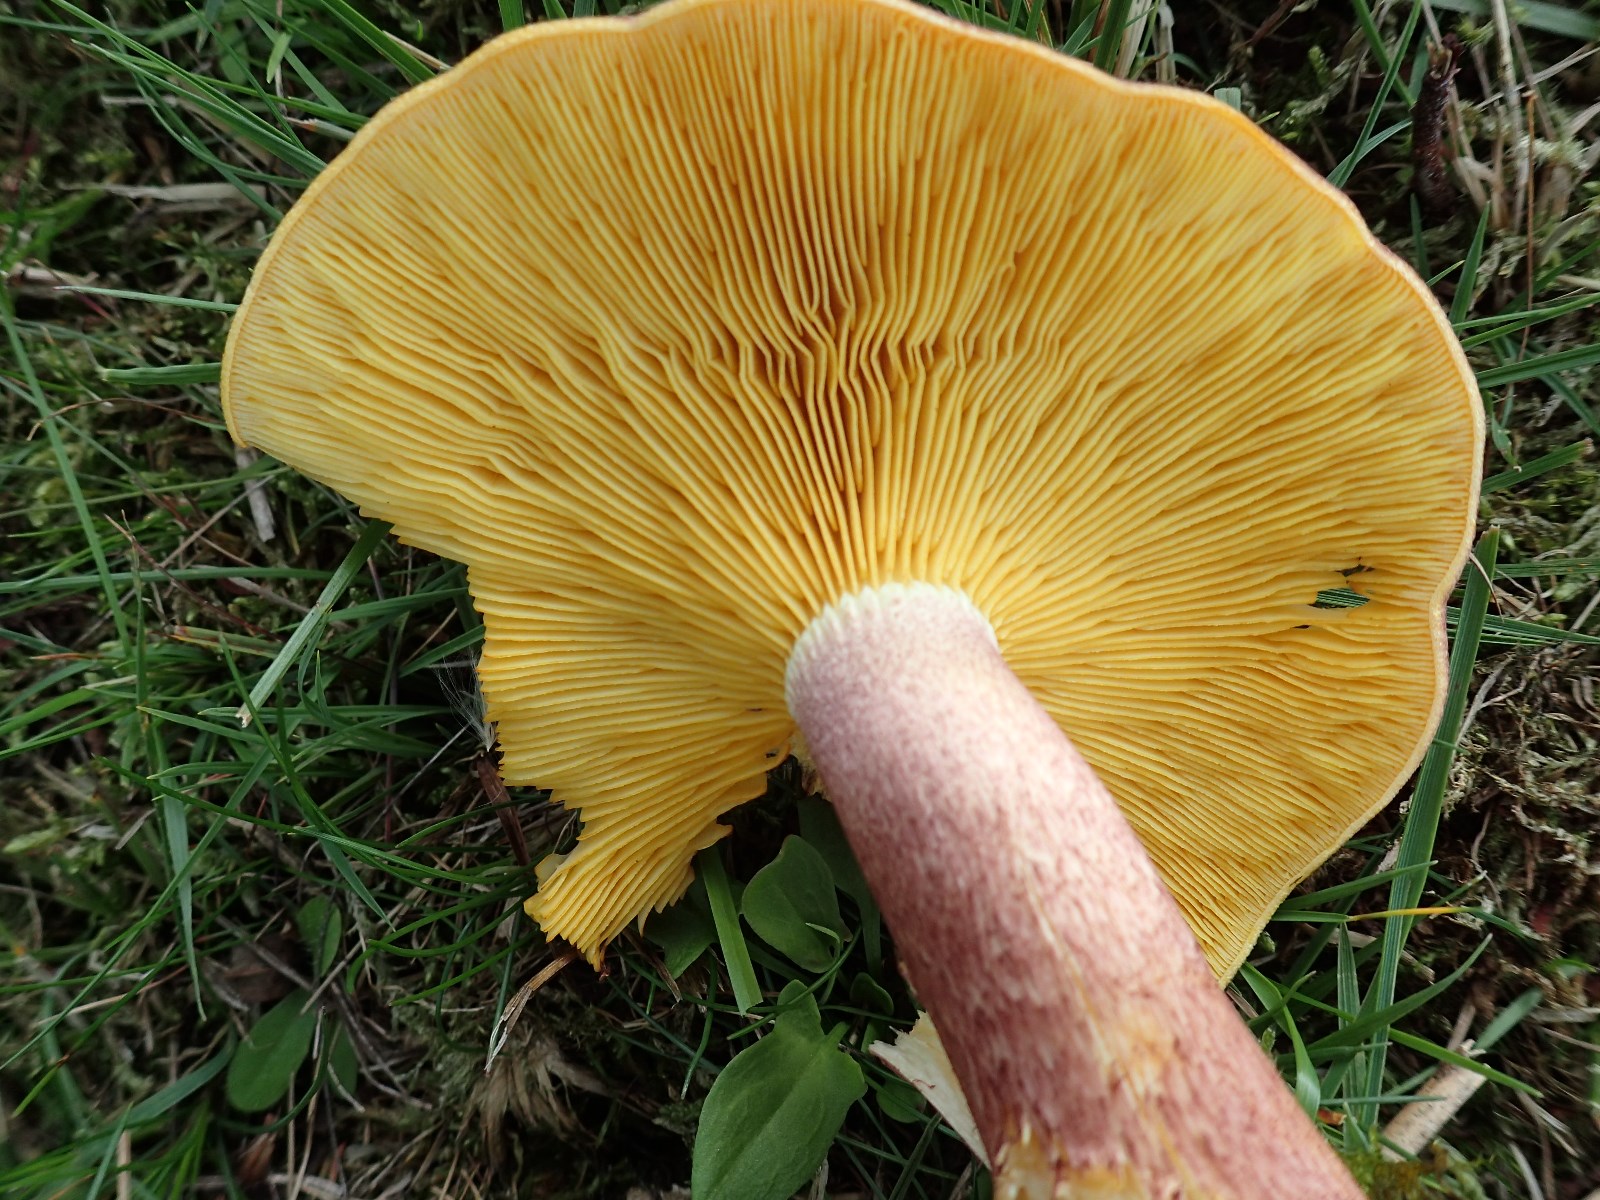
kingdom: Fungi
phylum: Basidiomycota
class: Agaricomycetes
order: Agaricales
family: Tricholomataceae
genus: Tricholomopsis
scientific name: Tricholomopsis rutilans
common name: purpur-væbnerhat
